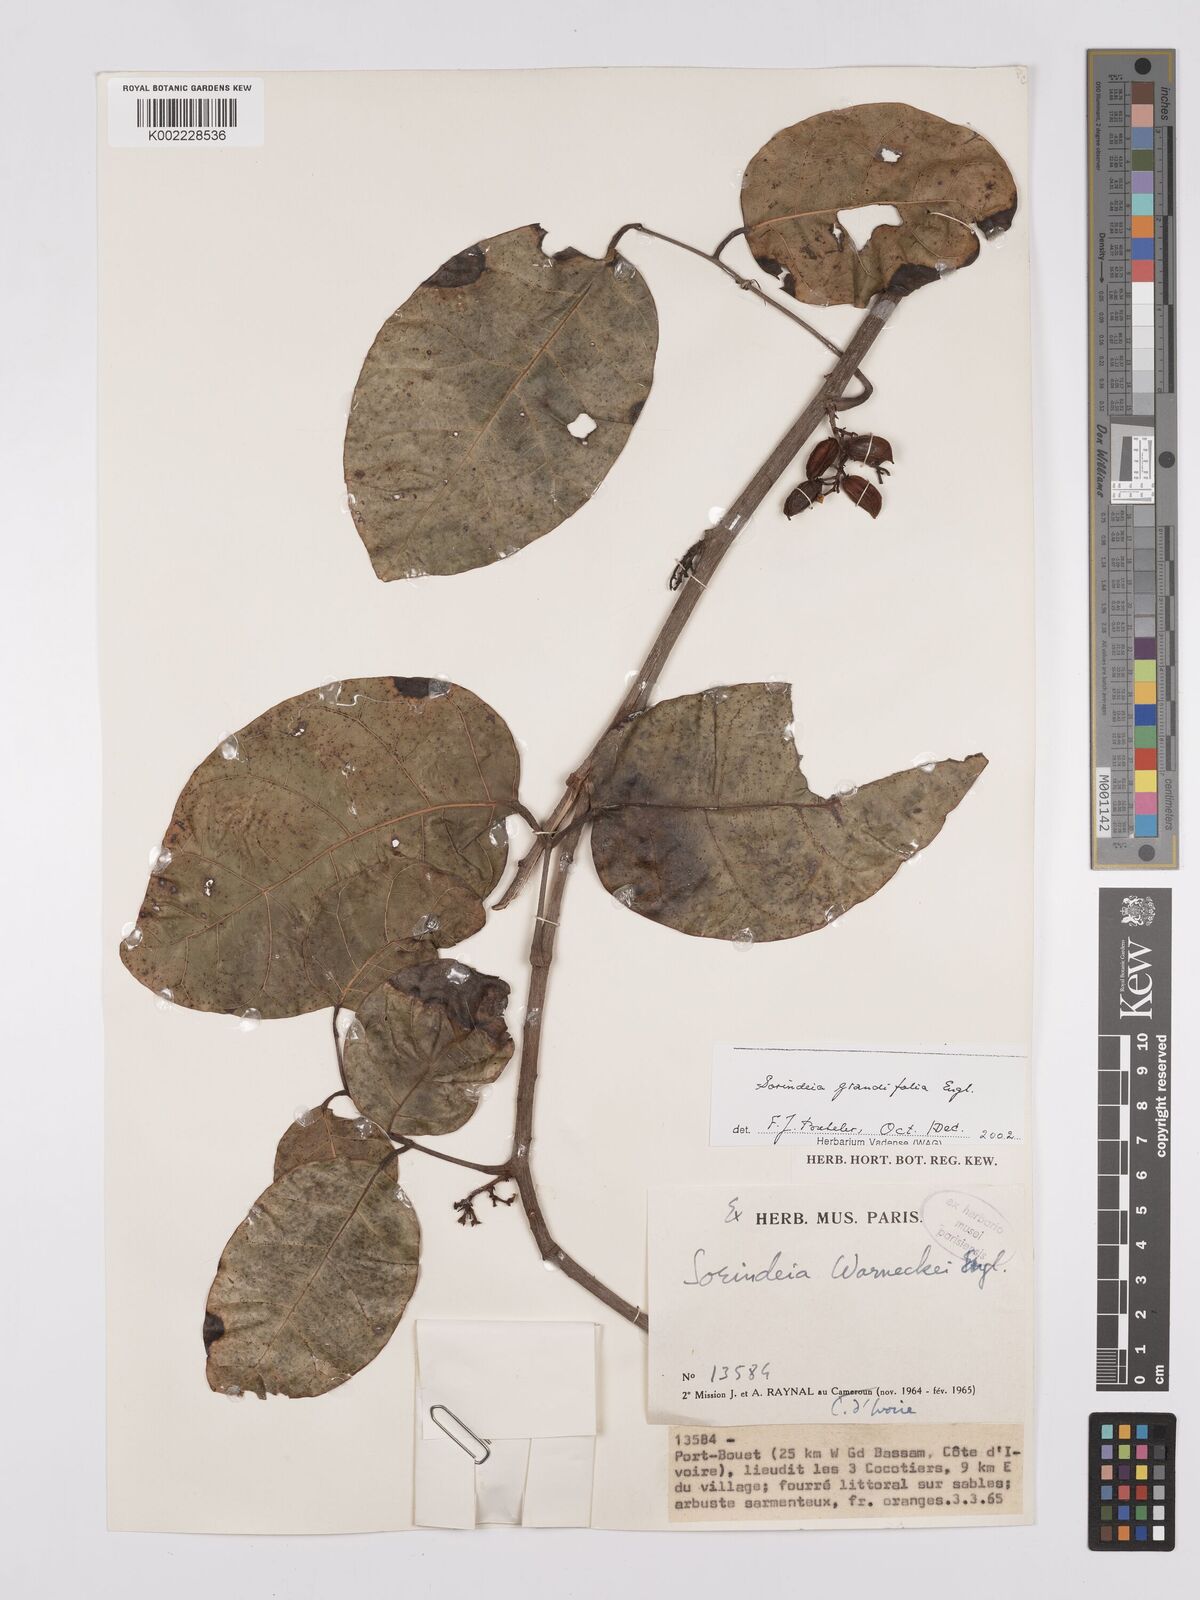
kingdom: Plantae
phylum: Tracheophyta
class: Magnoliopsida
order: Sapindales
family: Anacardiaceae
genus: Sorindeia
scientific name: Sorindeia grandifolia
